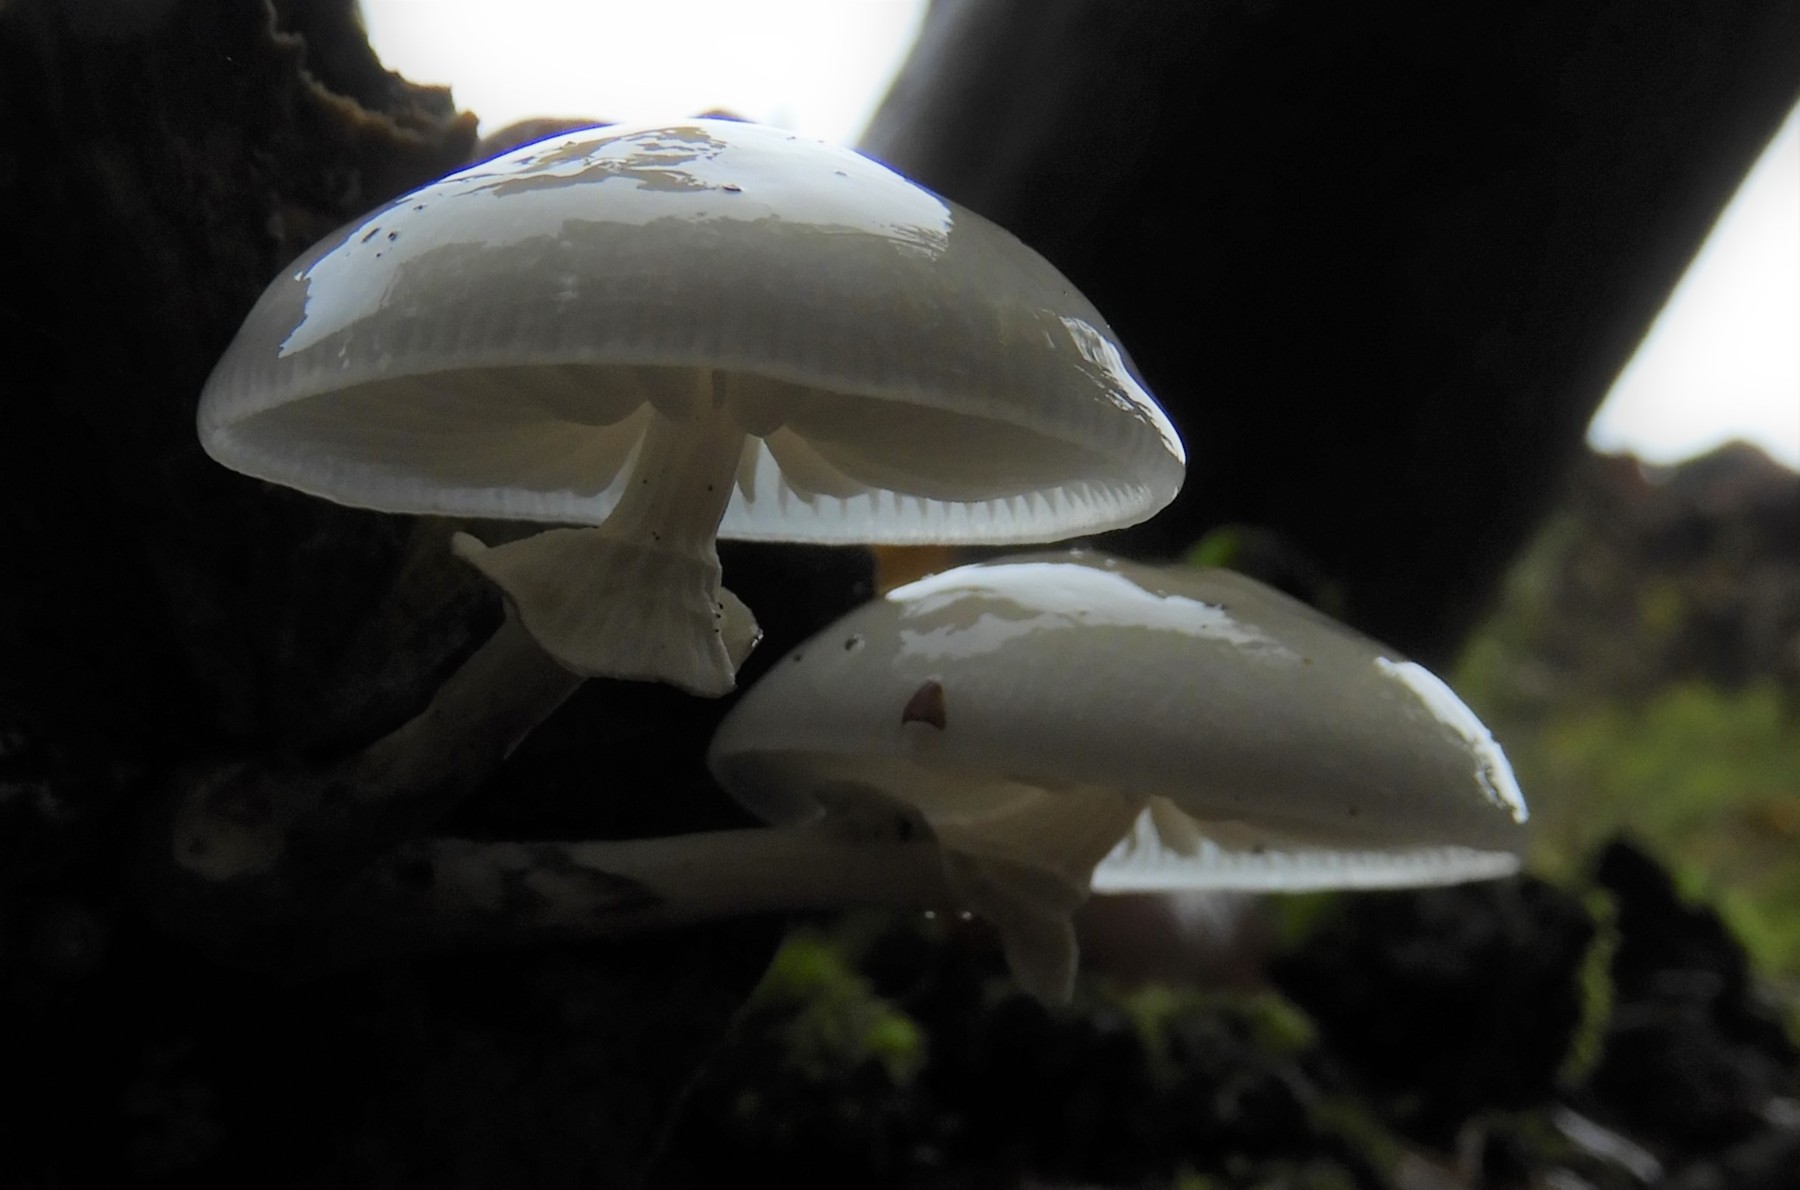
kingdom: Fungi
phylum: Basidiomycota
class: Agaricomycetes
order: Agaricales
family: Physalacriaceae
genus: Mucidula
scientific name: Mucidula mucida
